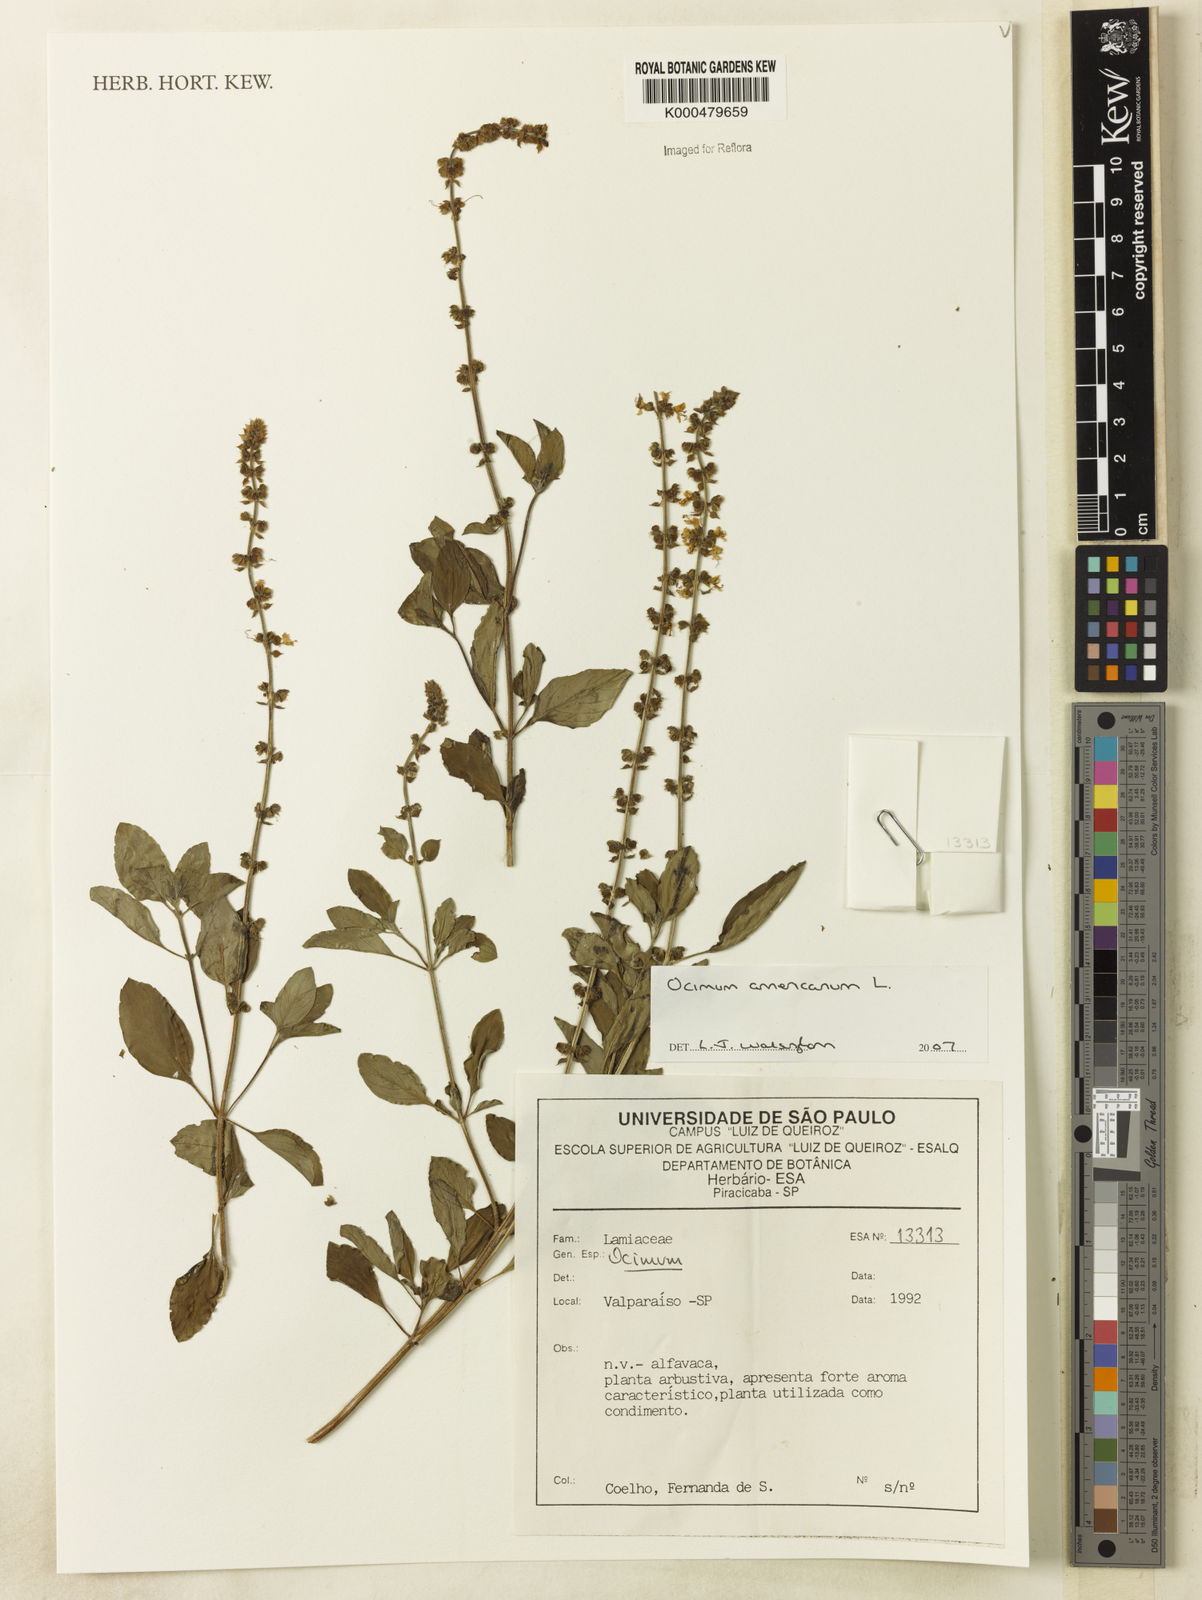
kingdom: Plantae
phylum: Tracheophyta
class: Magnoliopsida
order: Lamiales
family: Lamiaceae
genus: Ocimum
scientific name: Ocimum americanum
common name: American basil
